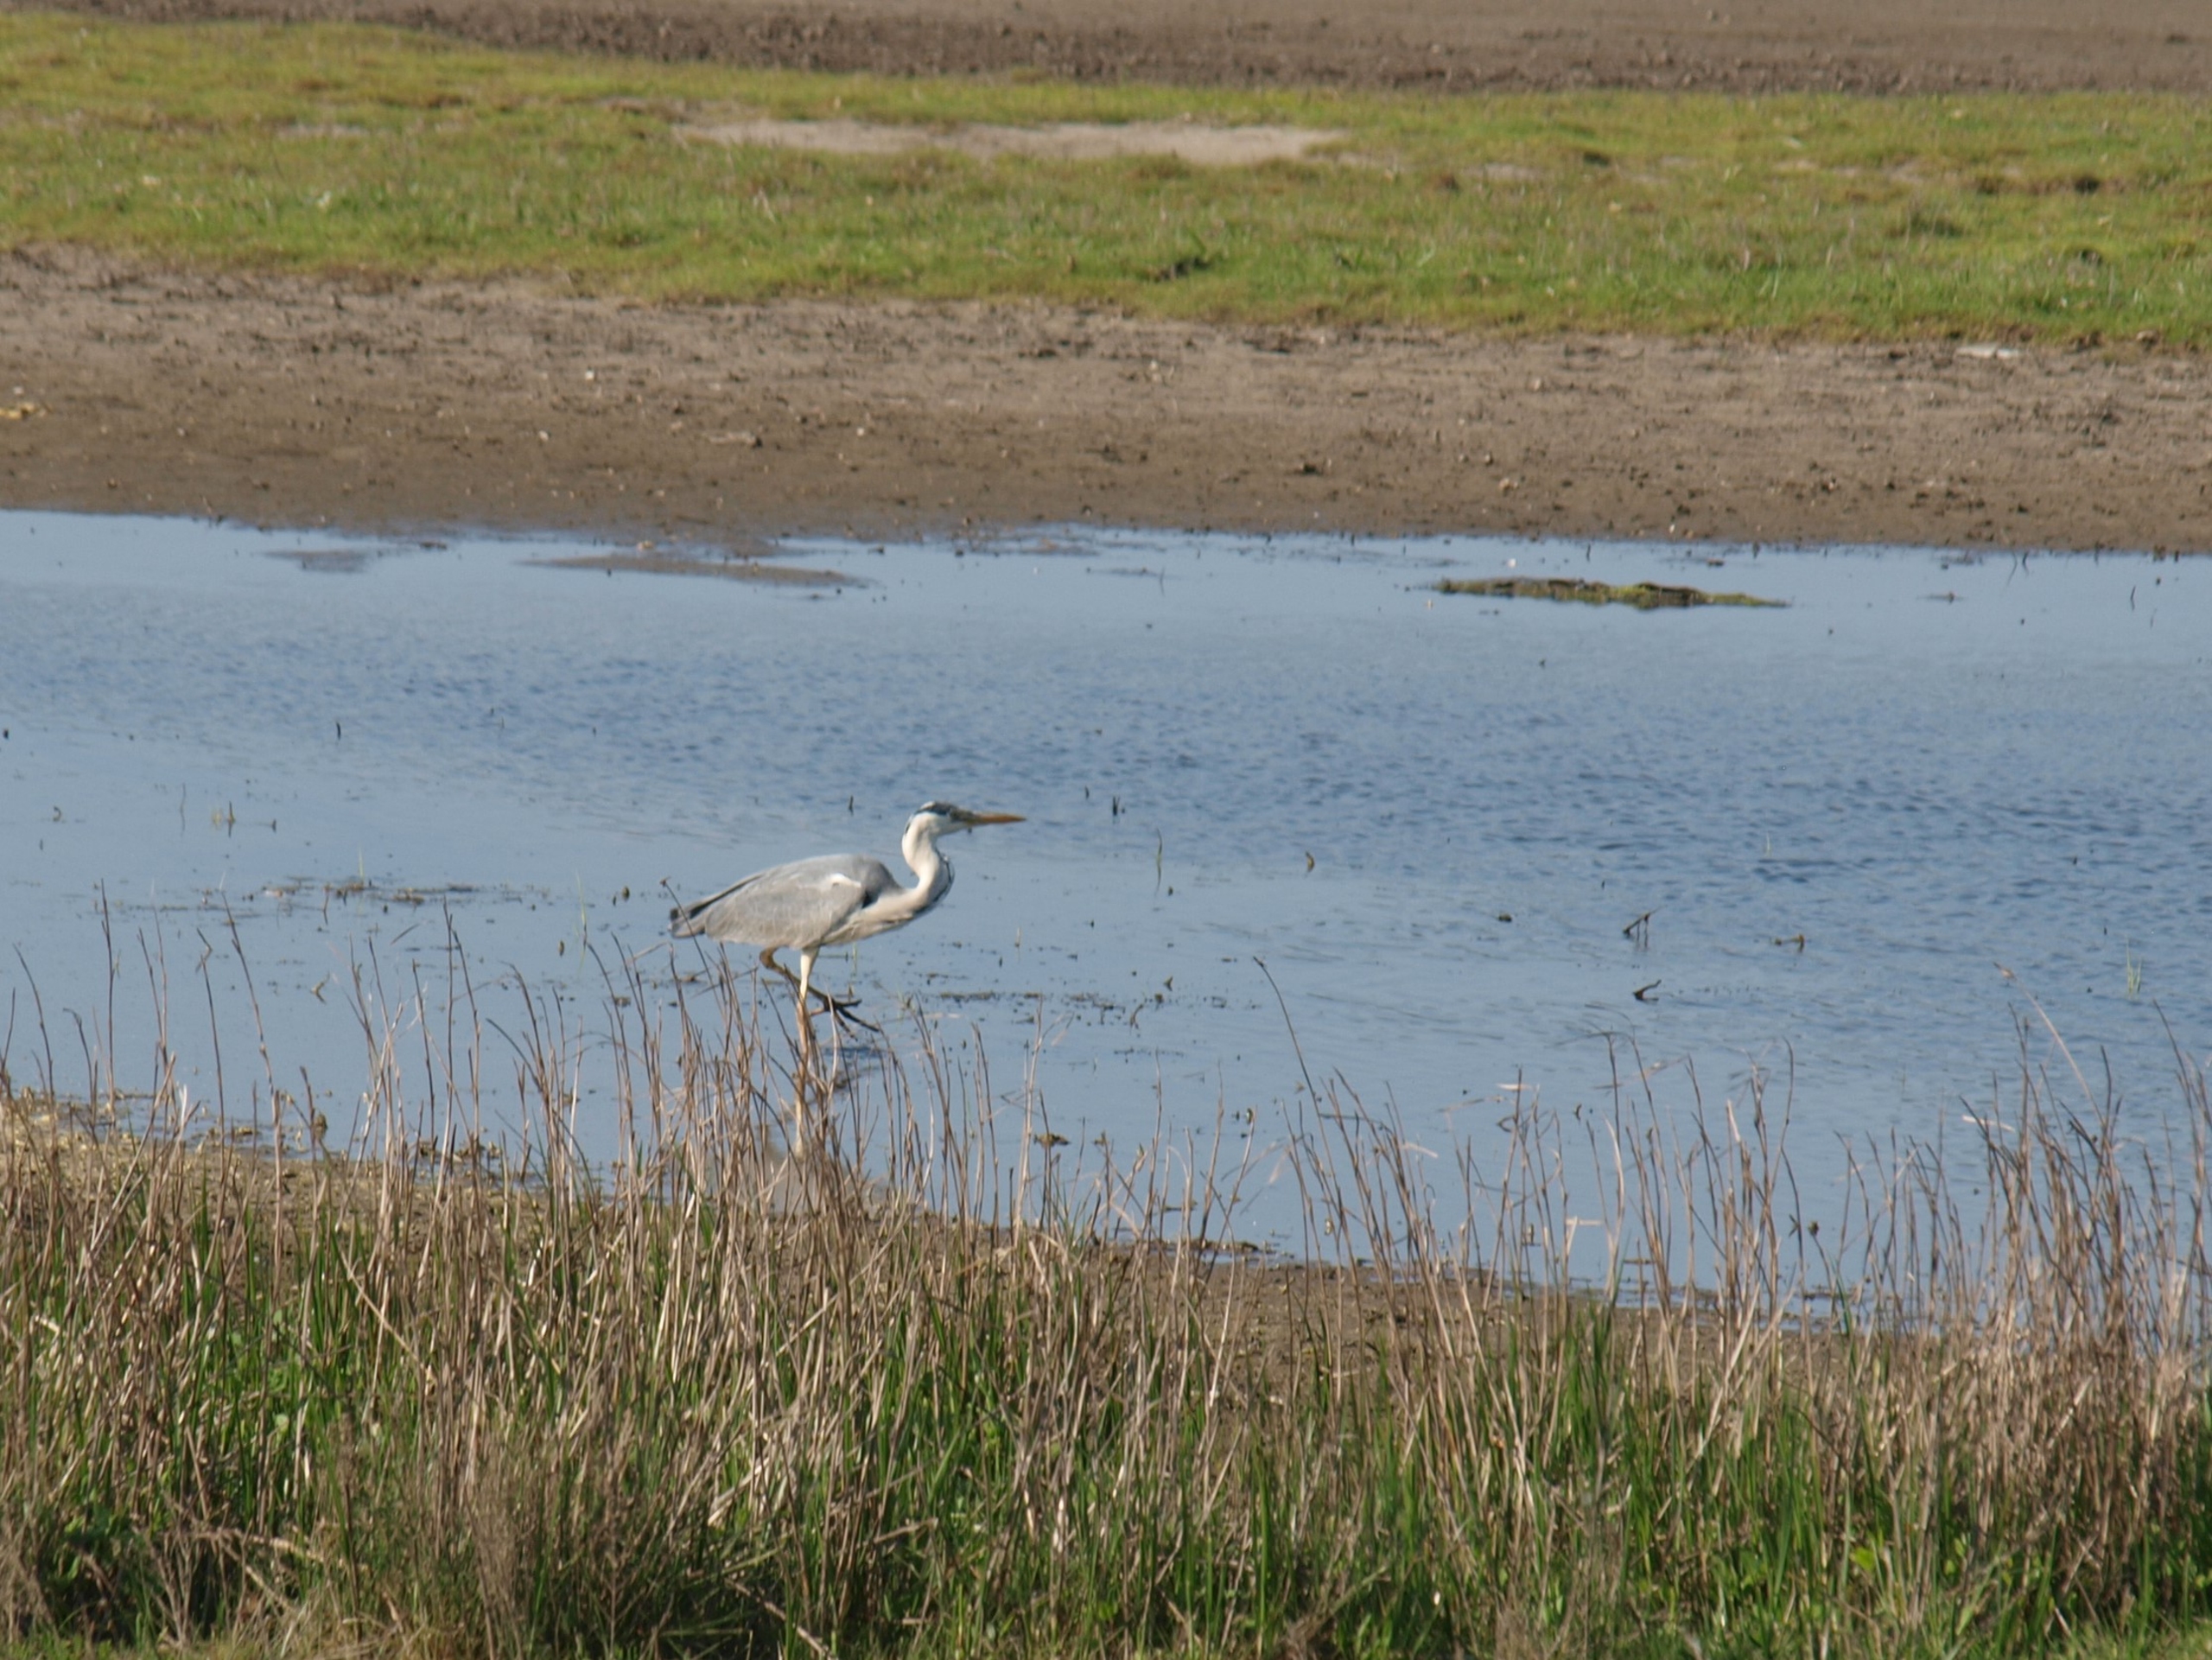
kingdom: Animalia
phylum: Chordata
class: Aves
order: Pelecaniformes
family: Ardeidae
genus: Ardea
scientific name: Ardea cinerea
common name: Fiskehejre
